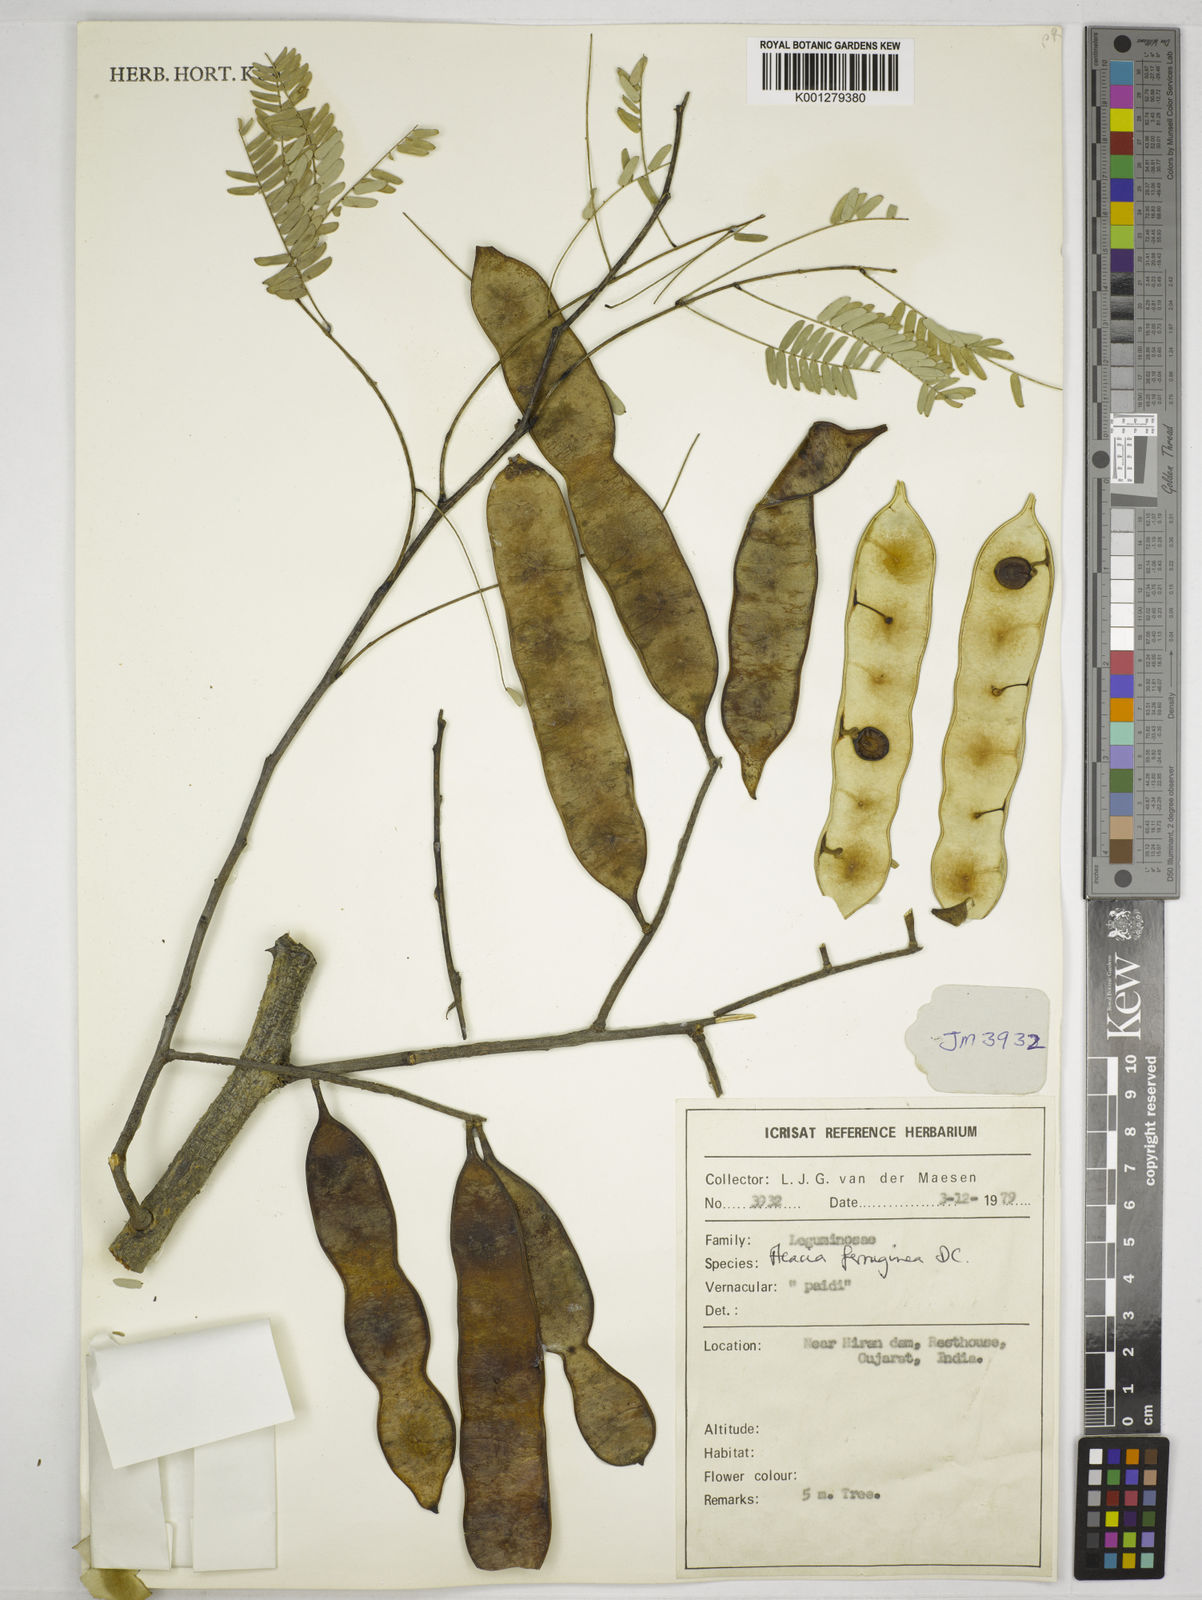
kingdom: Plantae
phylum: Tracheophyta
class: Magnoliopsida
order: Fabales
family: Fabaceae
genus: Senegalia
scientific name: Senegalia ferruginea
